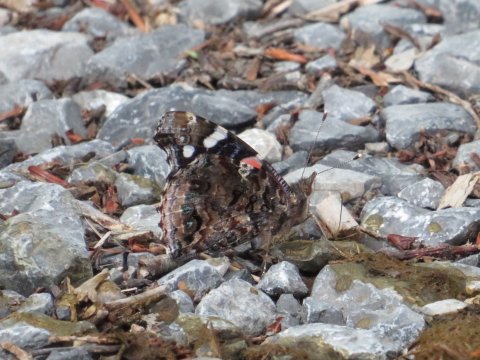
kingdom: Animalia
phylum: Arthropoda
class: Insecta
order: Lepidoptera
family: Nymphalidae
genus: Vanessa
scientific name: Vanessa atalanta
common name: Red Admiral
